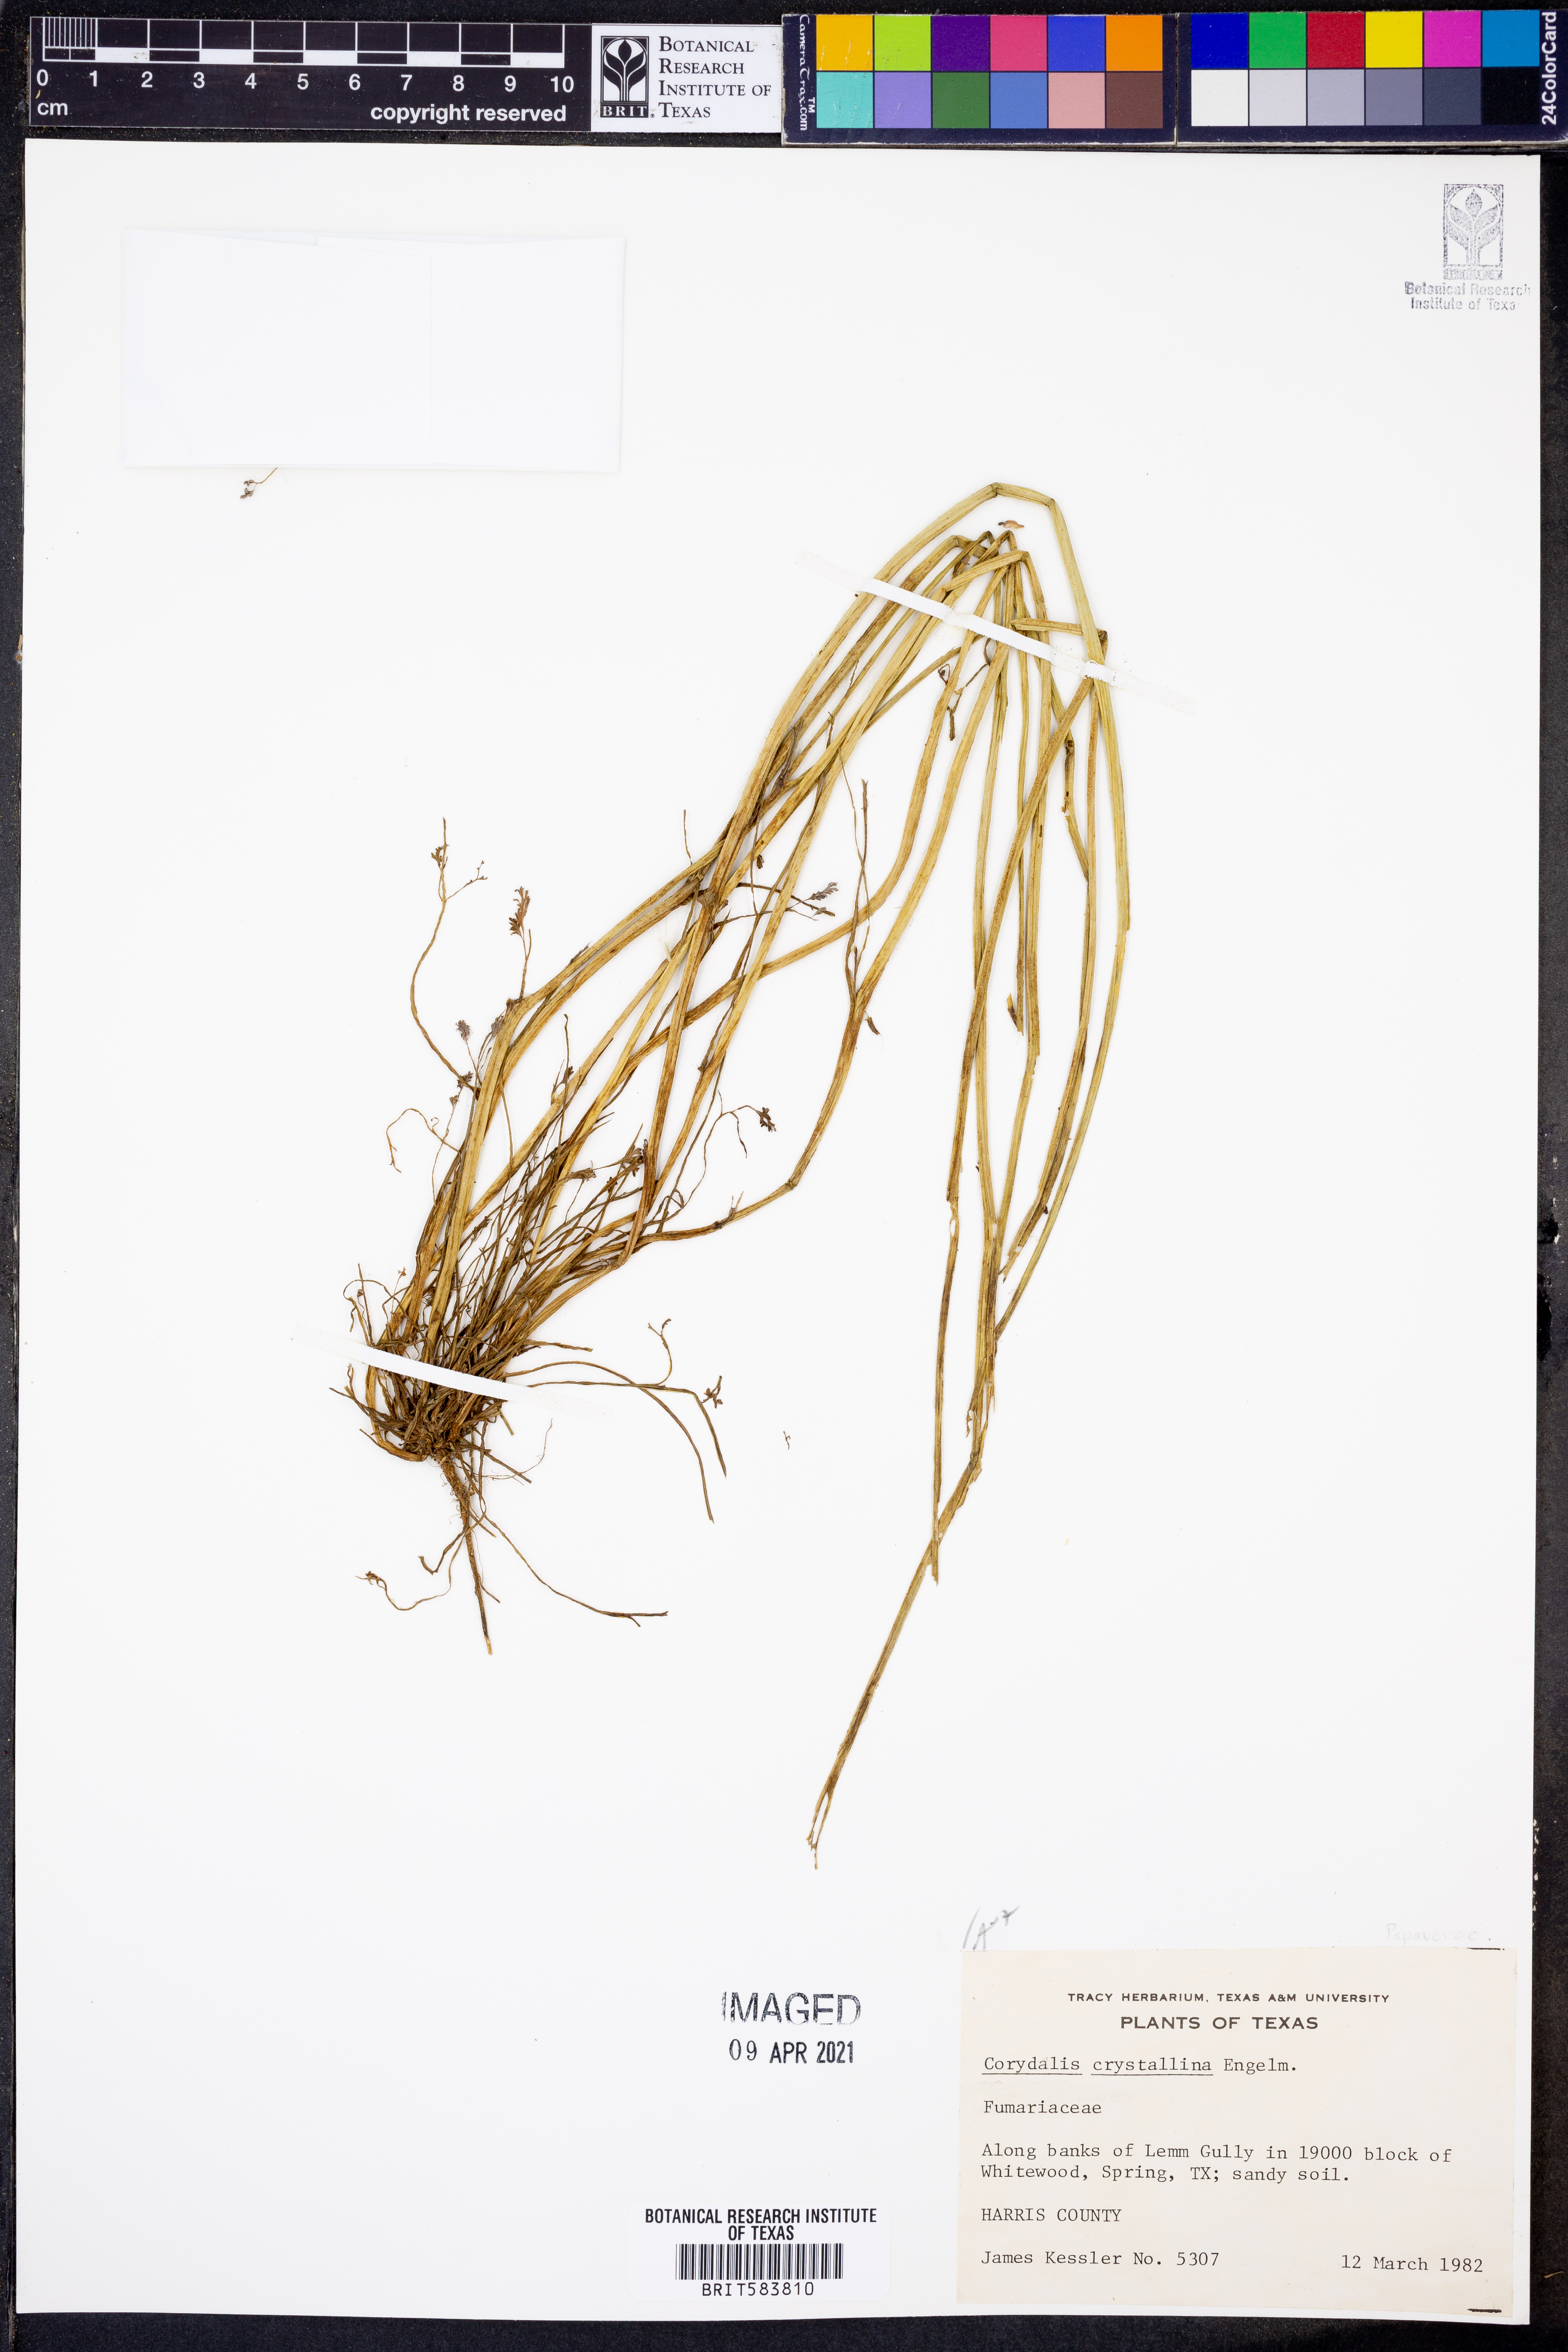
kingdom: Plantae
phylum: Tracheophyta
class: Magnoliopsida
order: Ranunculales
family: Papaveraceae
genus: Corydalis
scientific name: Corydalis crystallina
